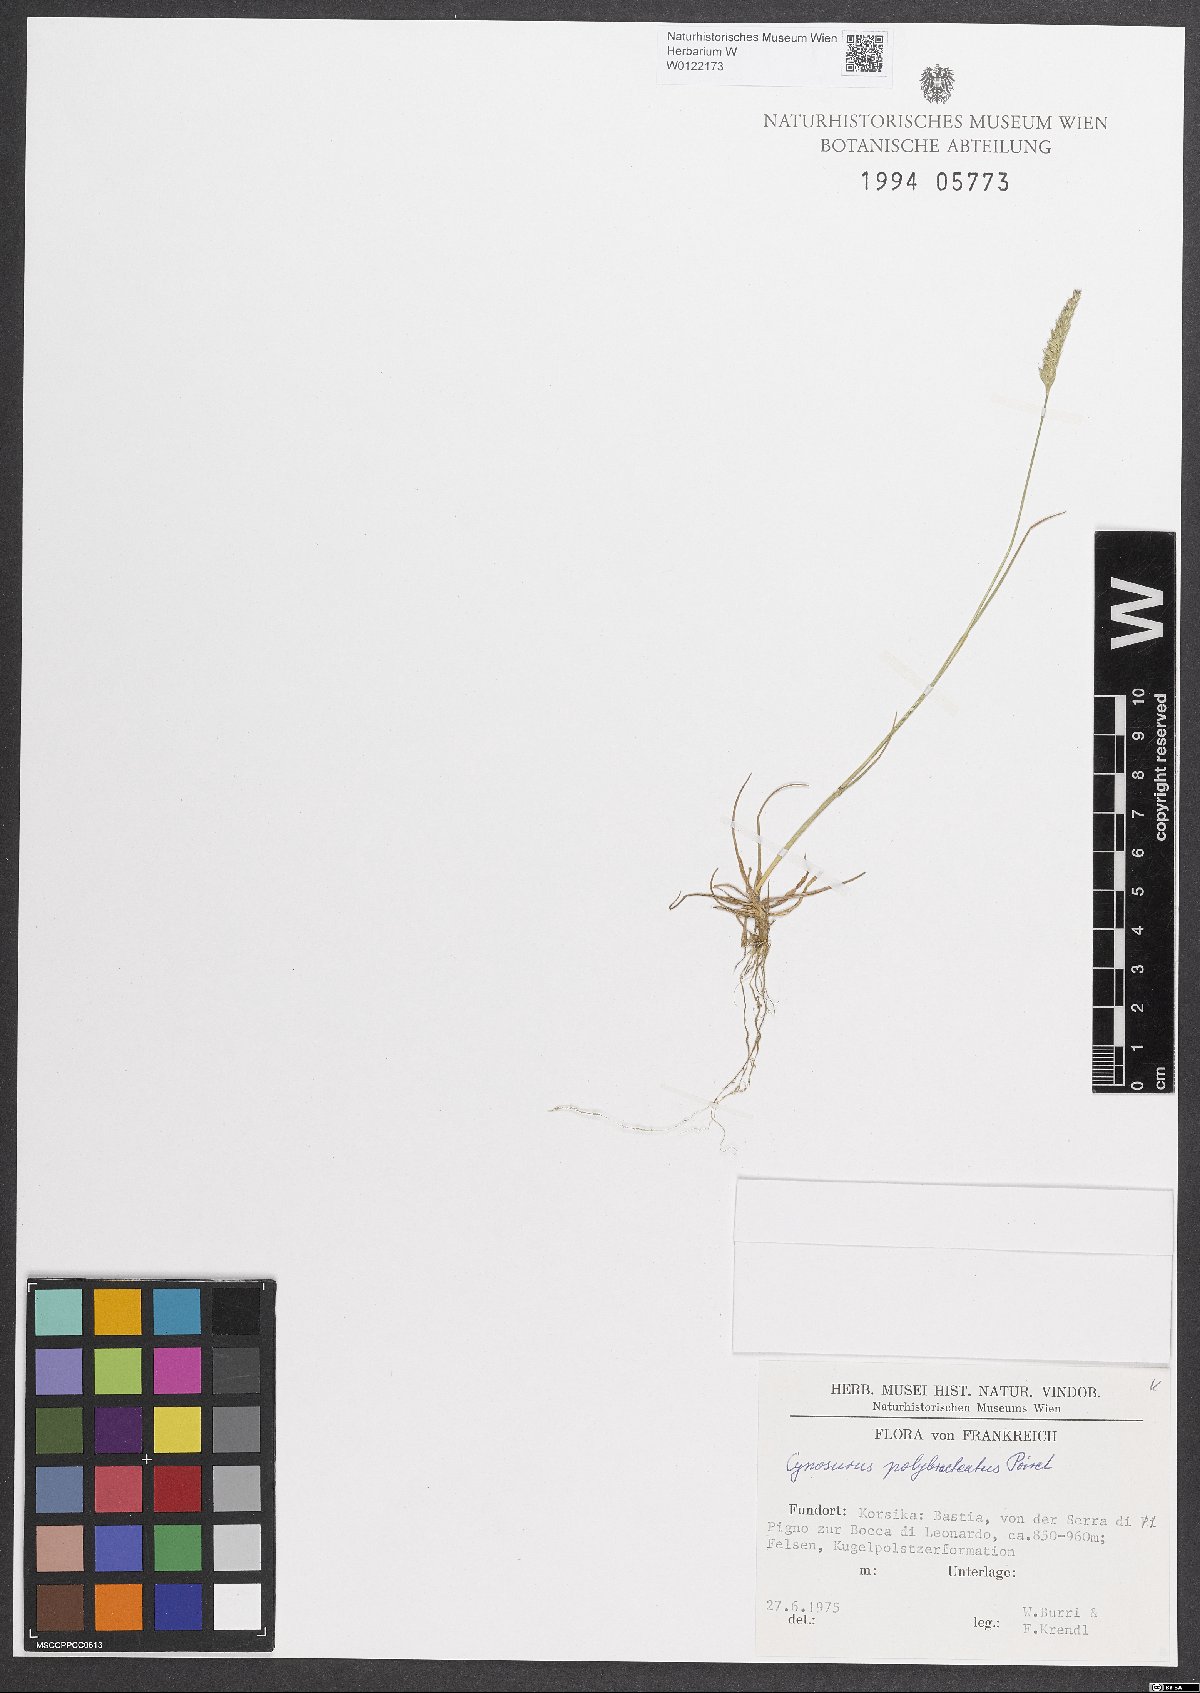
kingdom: Plantae
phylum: Tracheophyta
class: Liliopsida
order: Poales
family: Poaceae
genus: Cynosurus
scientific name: Cynosurus polybracteatus
